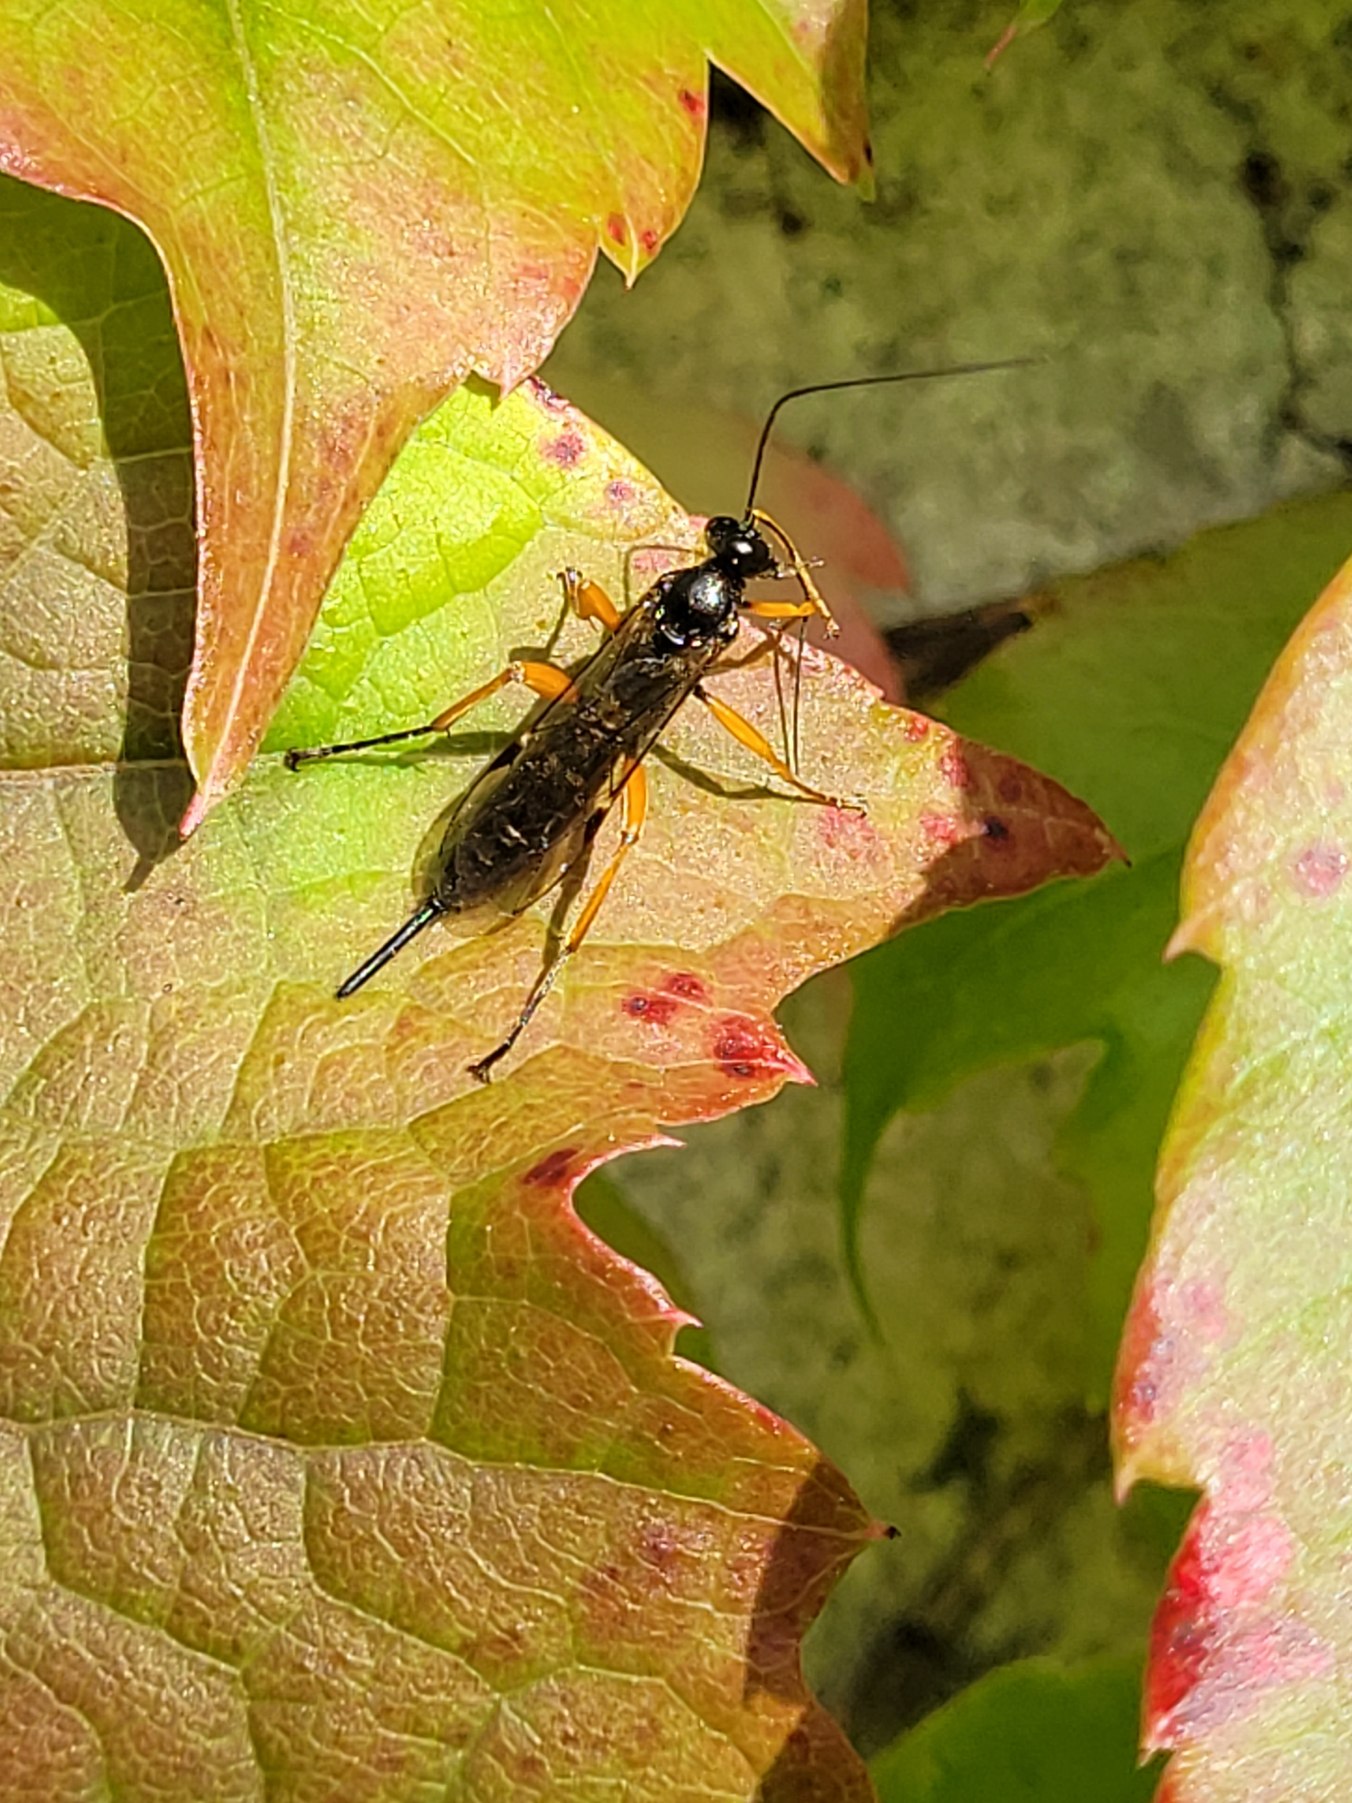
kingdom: Animalia
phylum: Arthropoda
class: Insecta
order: Hymenoptera
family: Ichneumonidae
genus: Pimpla
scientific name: Pimpla rufipes
